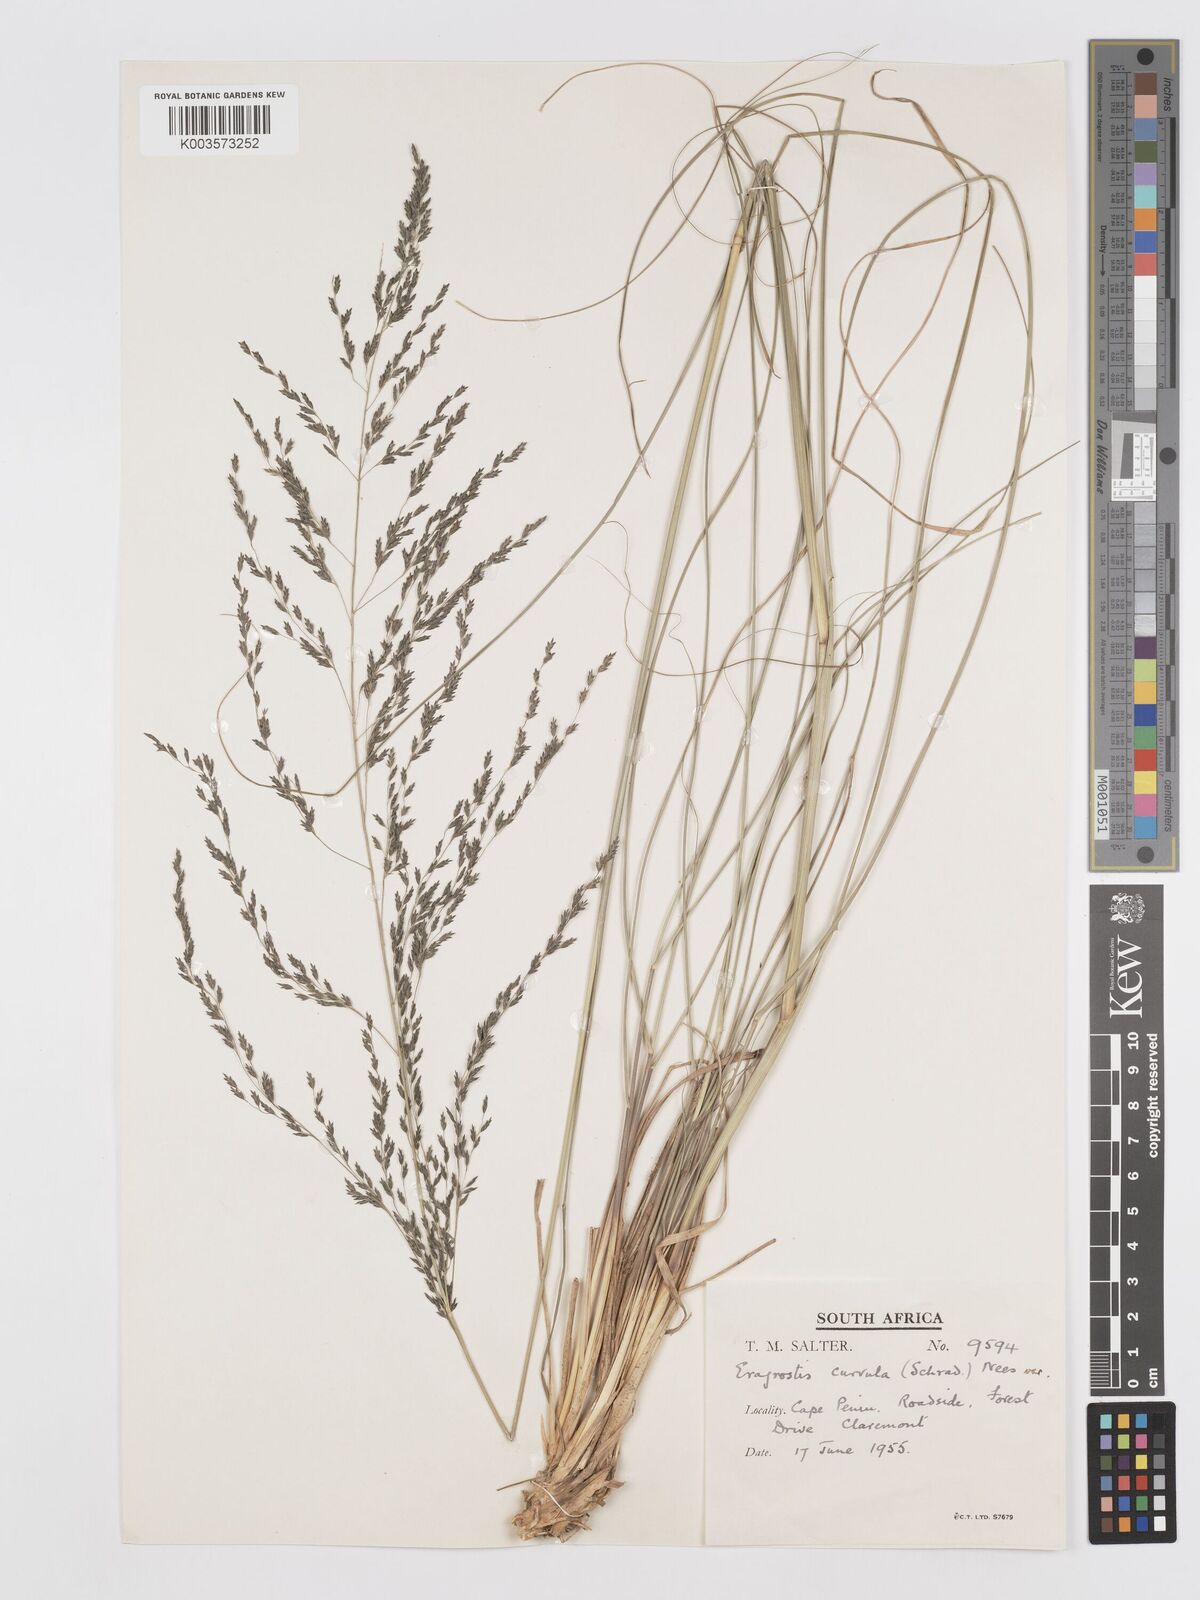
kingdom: Plantae
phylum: Tracheophyta
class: Liliopsida
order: Poales
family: Poaceae
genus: Eragrostis
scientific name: Eragrostis curvula
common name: African love-grass
